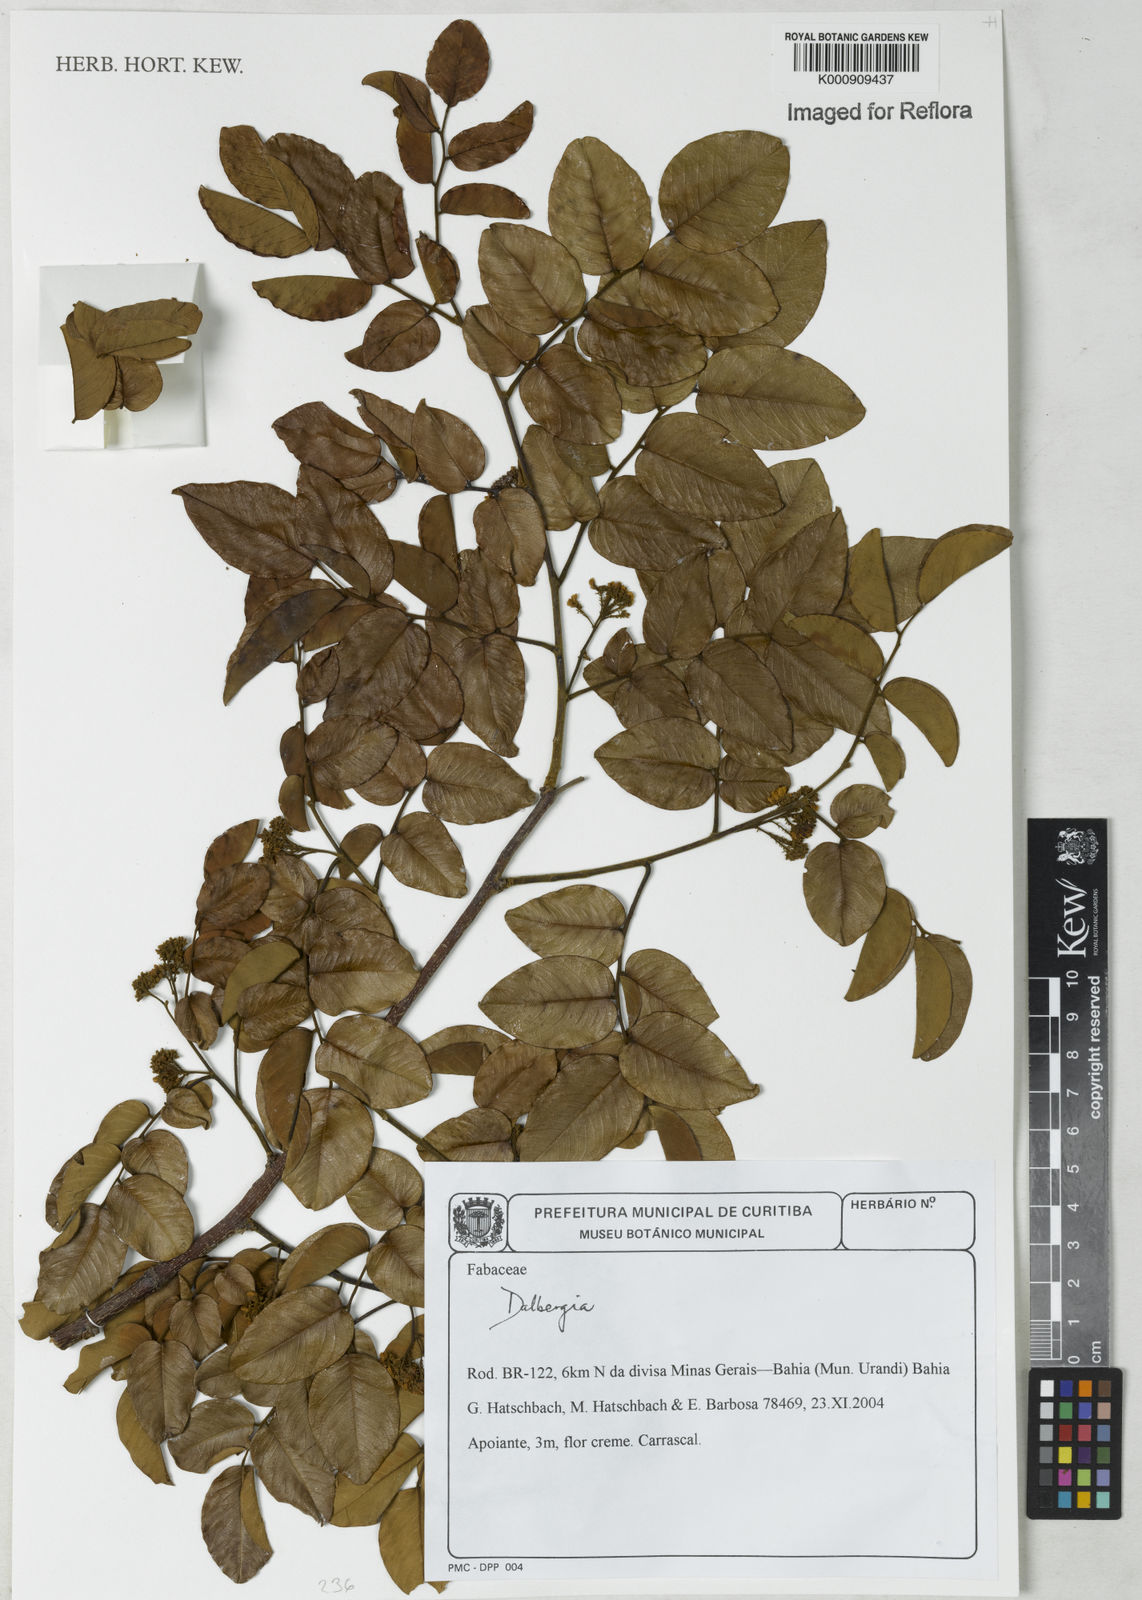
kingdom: Plantae
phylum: Tracheophyta
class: Magnoliopsida
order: Fabales
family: Fabaceae
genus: Dalbergia
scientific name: Dalbergia
